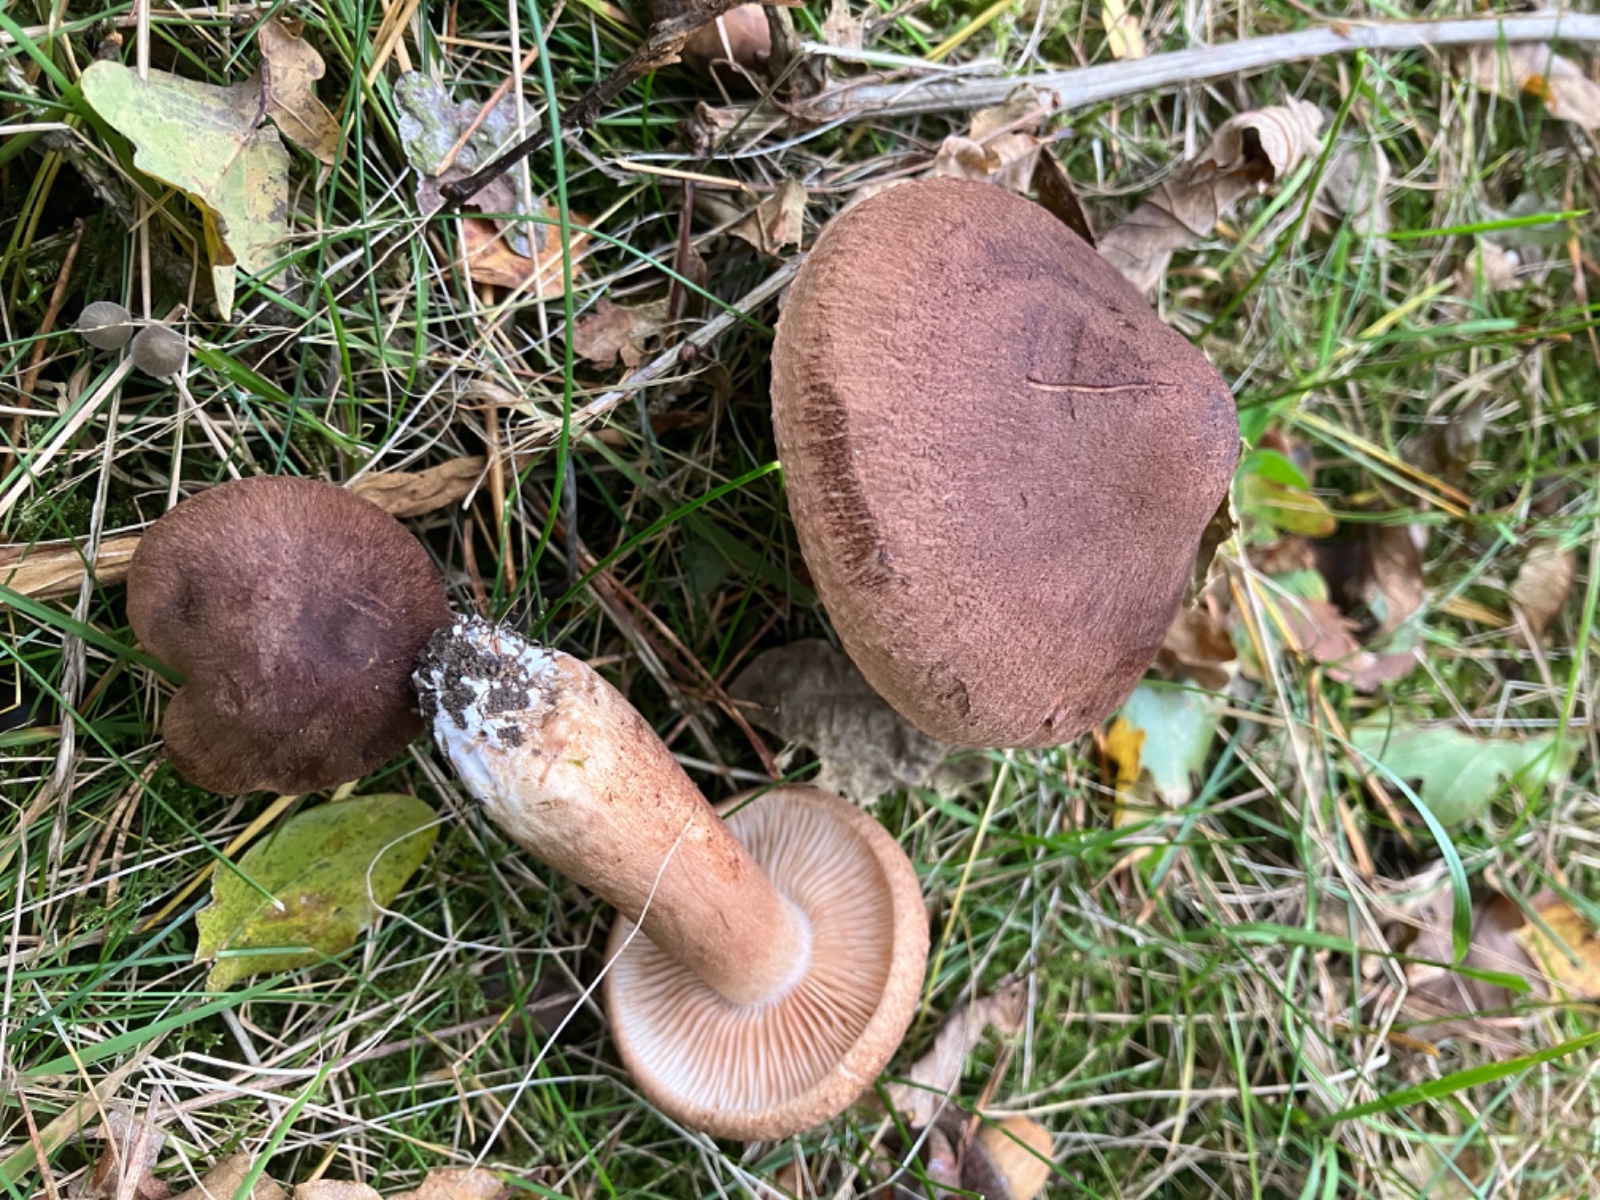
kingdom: Fungi
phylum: Basidiomycota
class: Agaricomycetes
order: Agaricales
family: Tricholomataceae
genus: Tricholoma
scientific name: Tricholoma imbricatum
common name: skællet ridderhat
